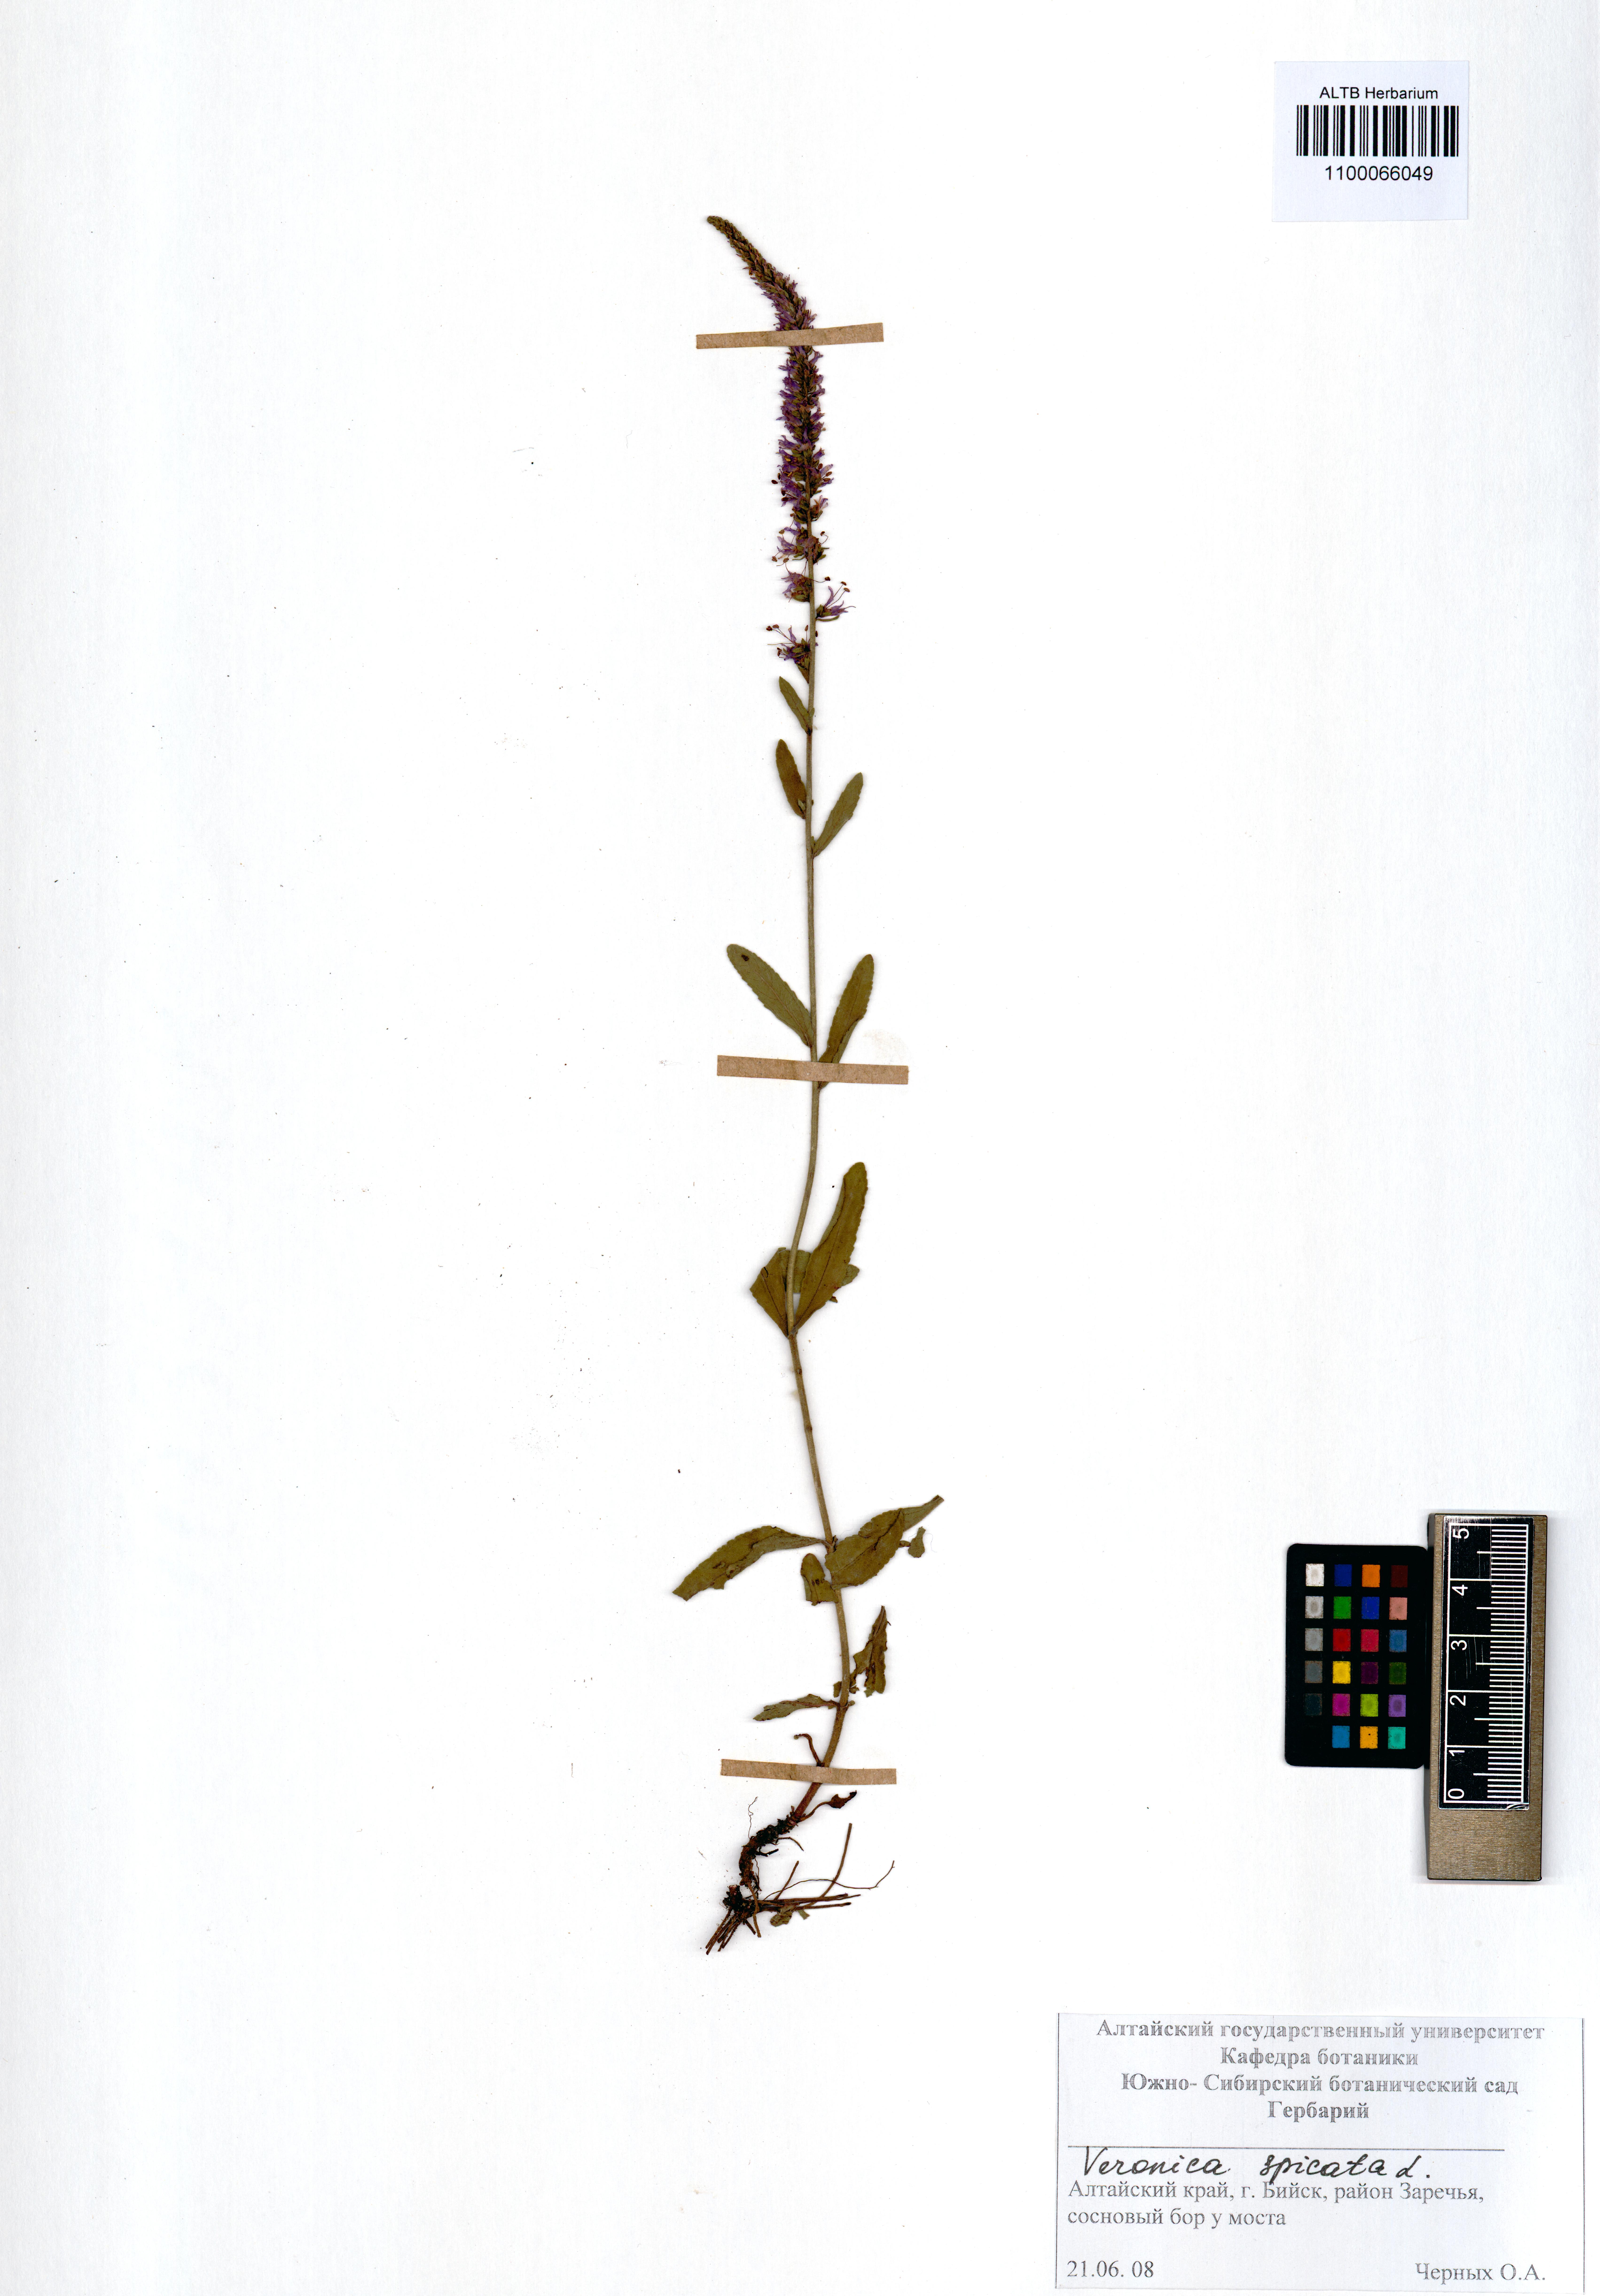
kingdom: Plantae
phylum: Tracheophyta
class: Magnoliopsida
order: Lamiales
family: Plantaginaceae
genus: Veronica
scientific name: Veronica spicata
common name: Spiked speedwell
